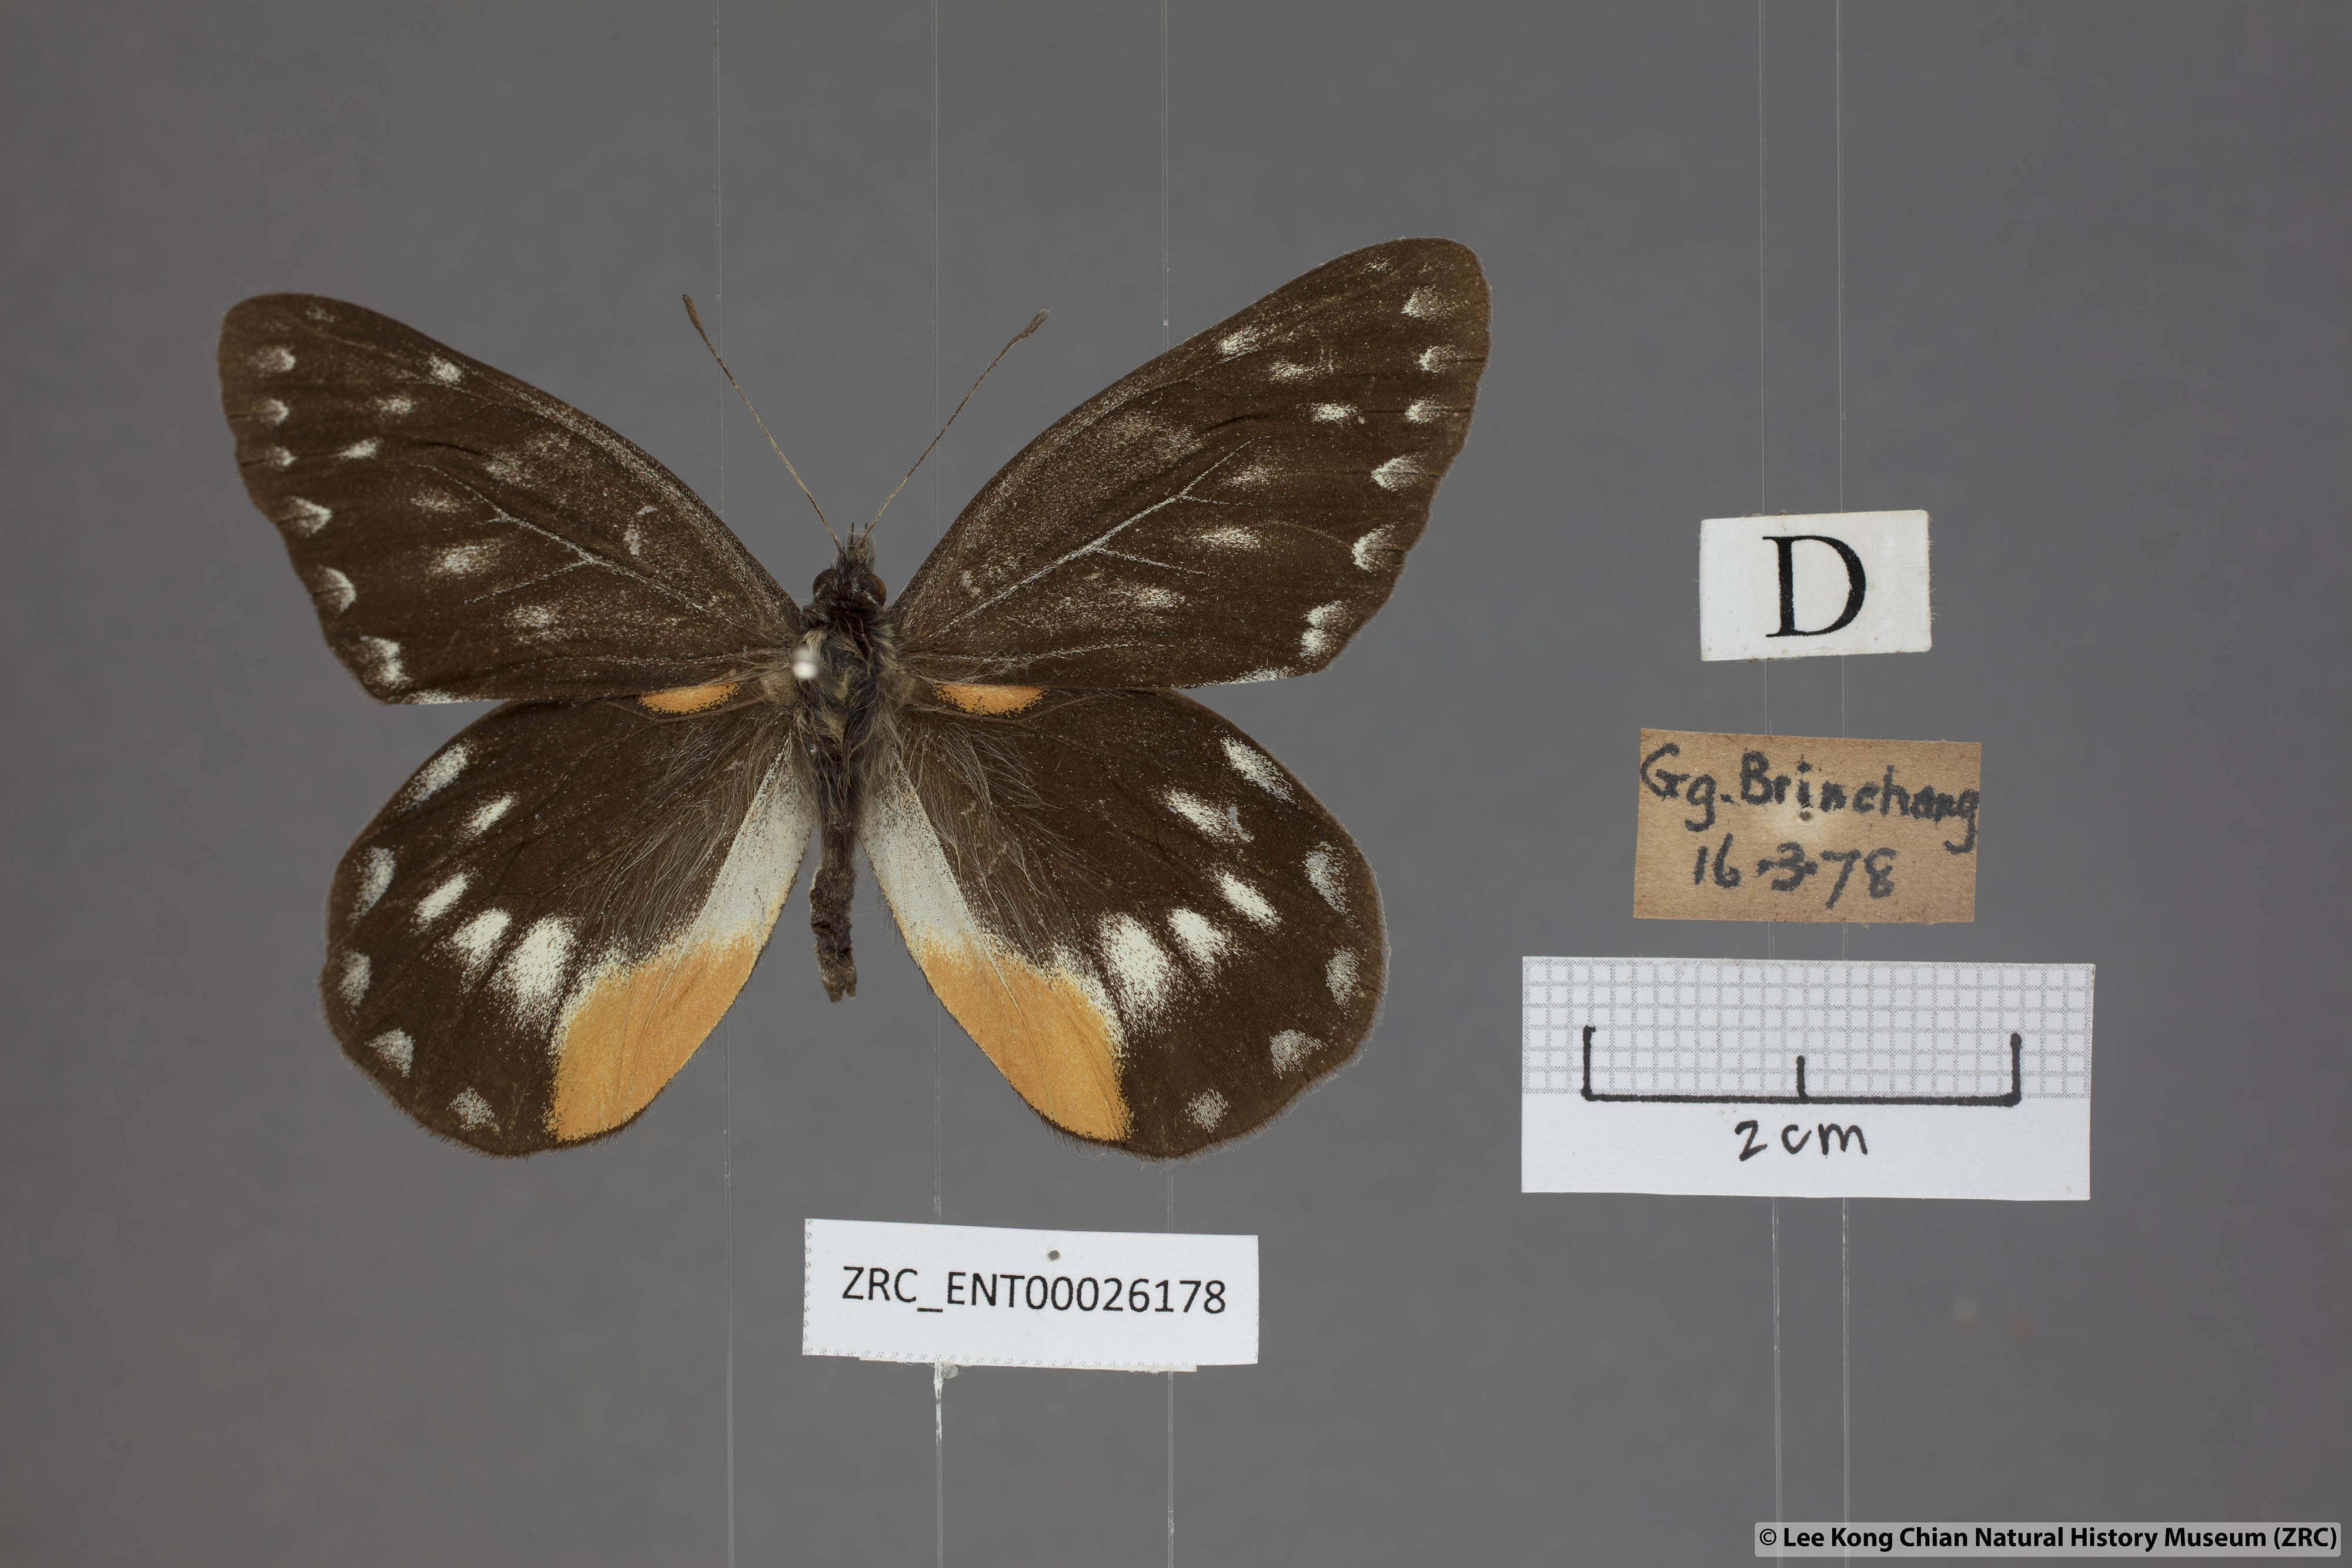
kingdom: Animalia
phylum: Arthropoda
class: Insecta
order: Lepidoptera
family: Pieridae
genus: Delias
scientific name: Delias belladonna
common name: Hill jezebel
